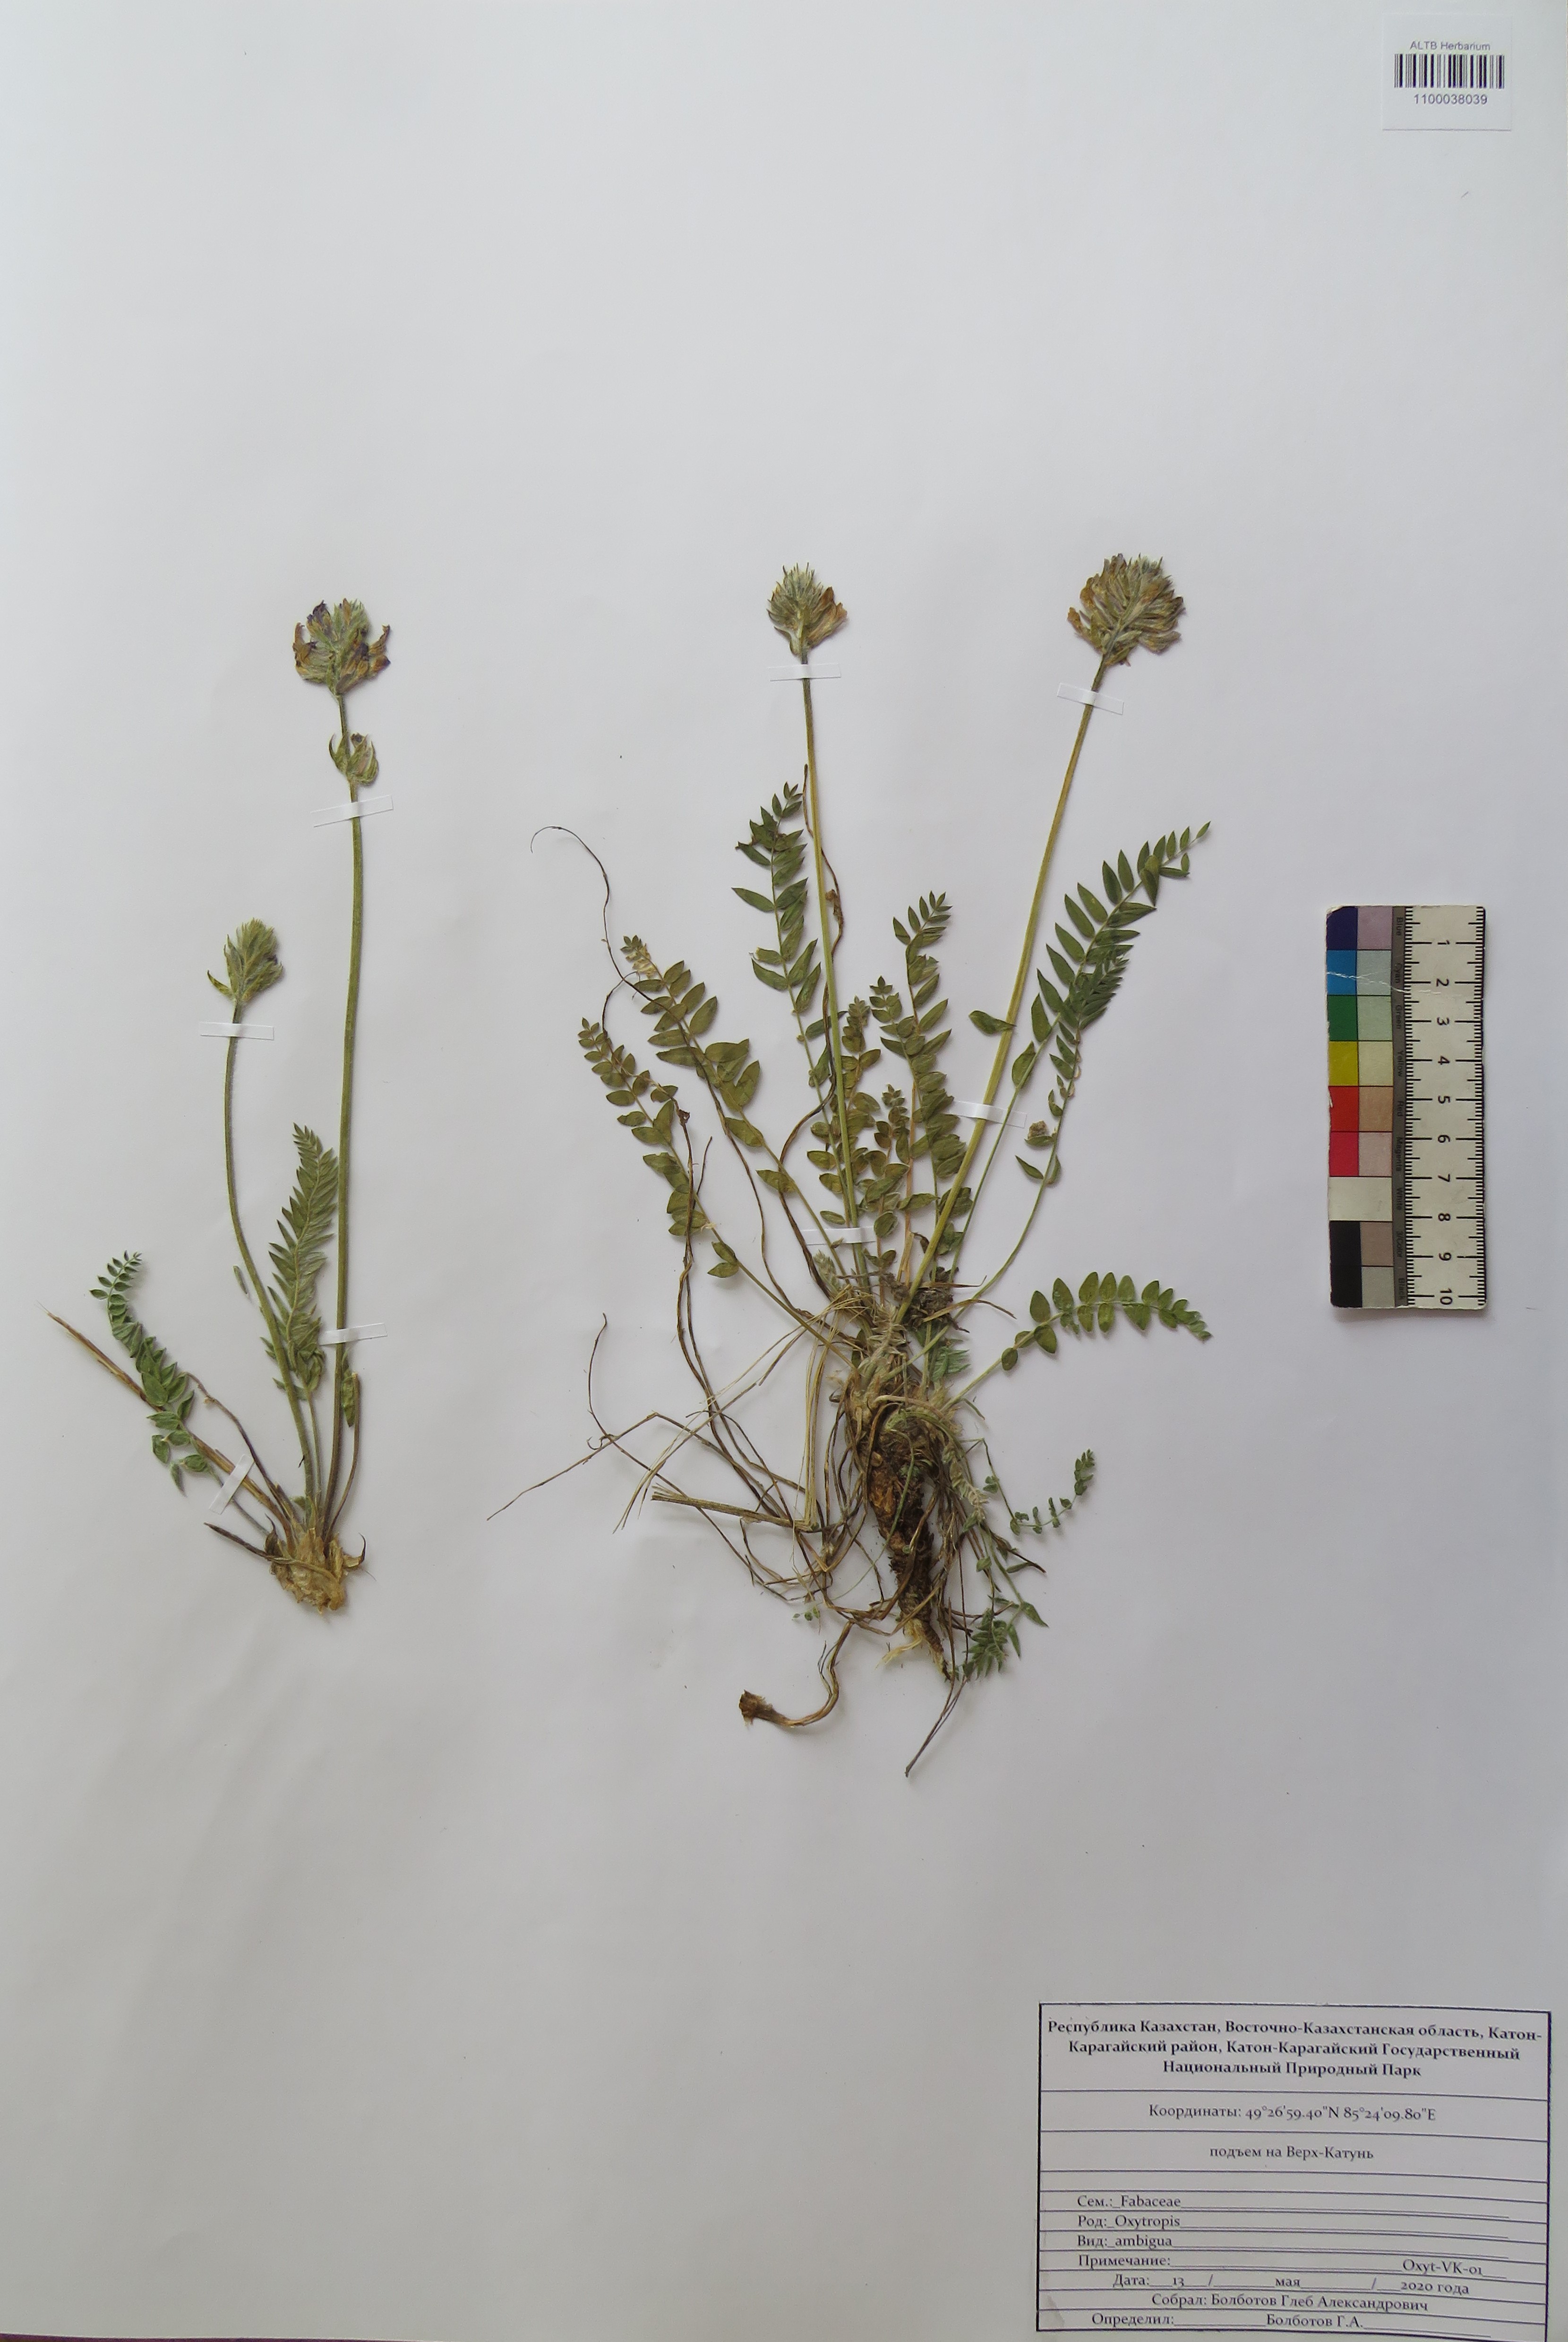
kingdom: Plantae
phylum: Tracheophyta
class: Magnoliopsida
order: Fabales
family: Fabaceae
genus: Oxytropis
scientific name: Oxytropis ambigua
